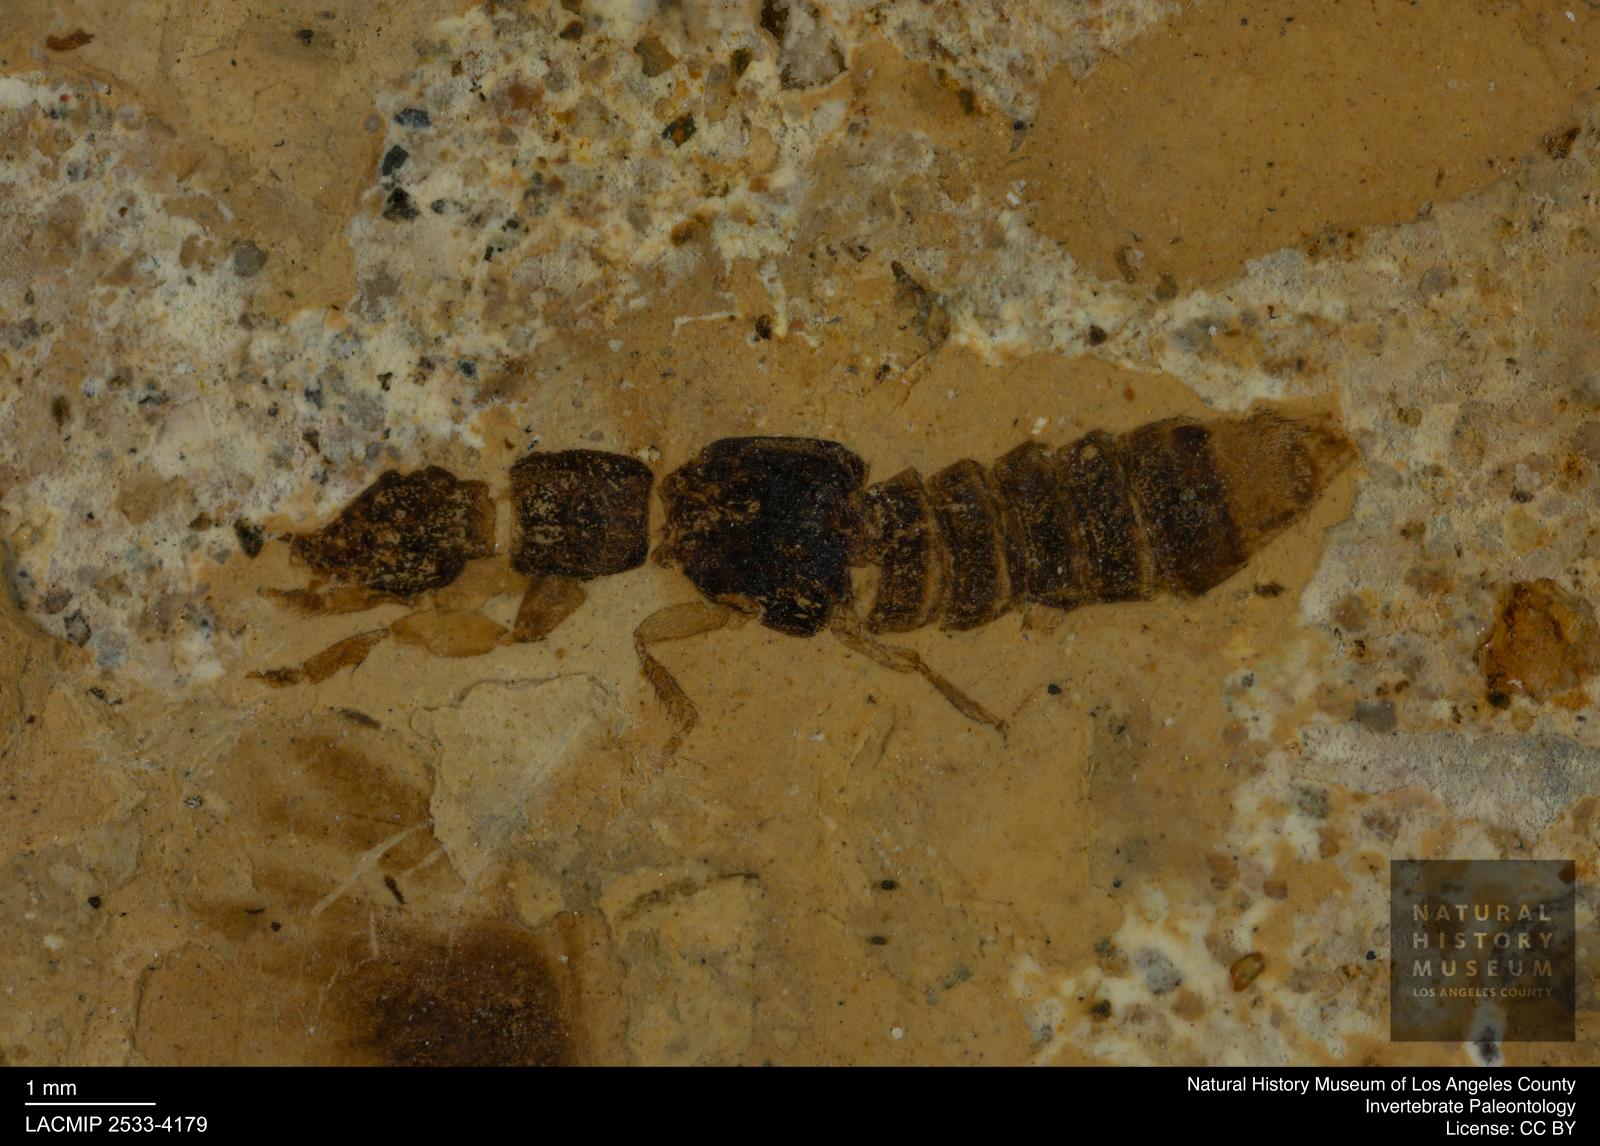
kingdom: Animalia
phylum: Arthropoda
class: Insecta
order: Coleoptera
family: Staphylinidae
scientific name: Staphylinidae
